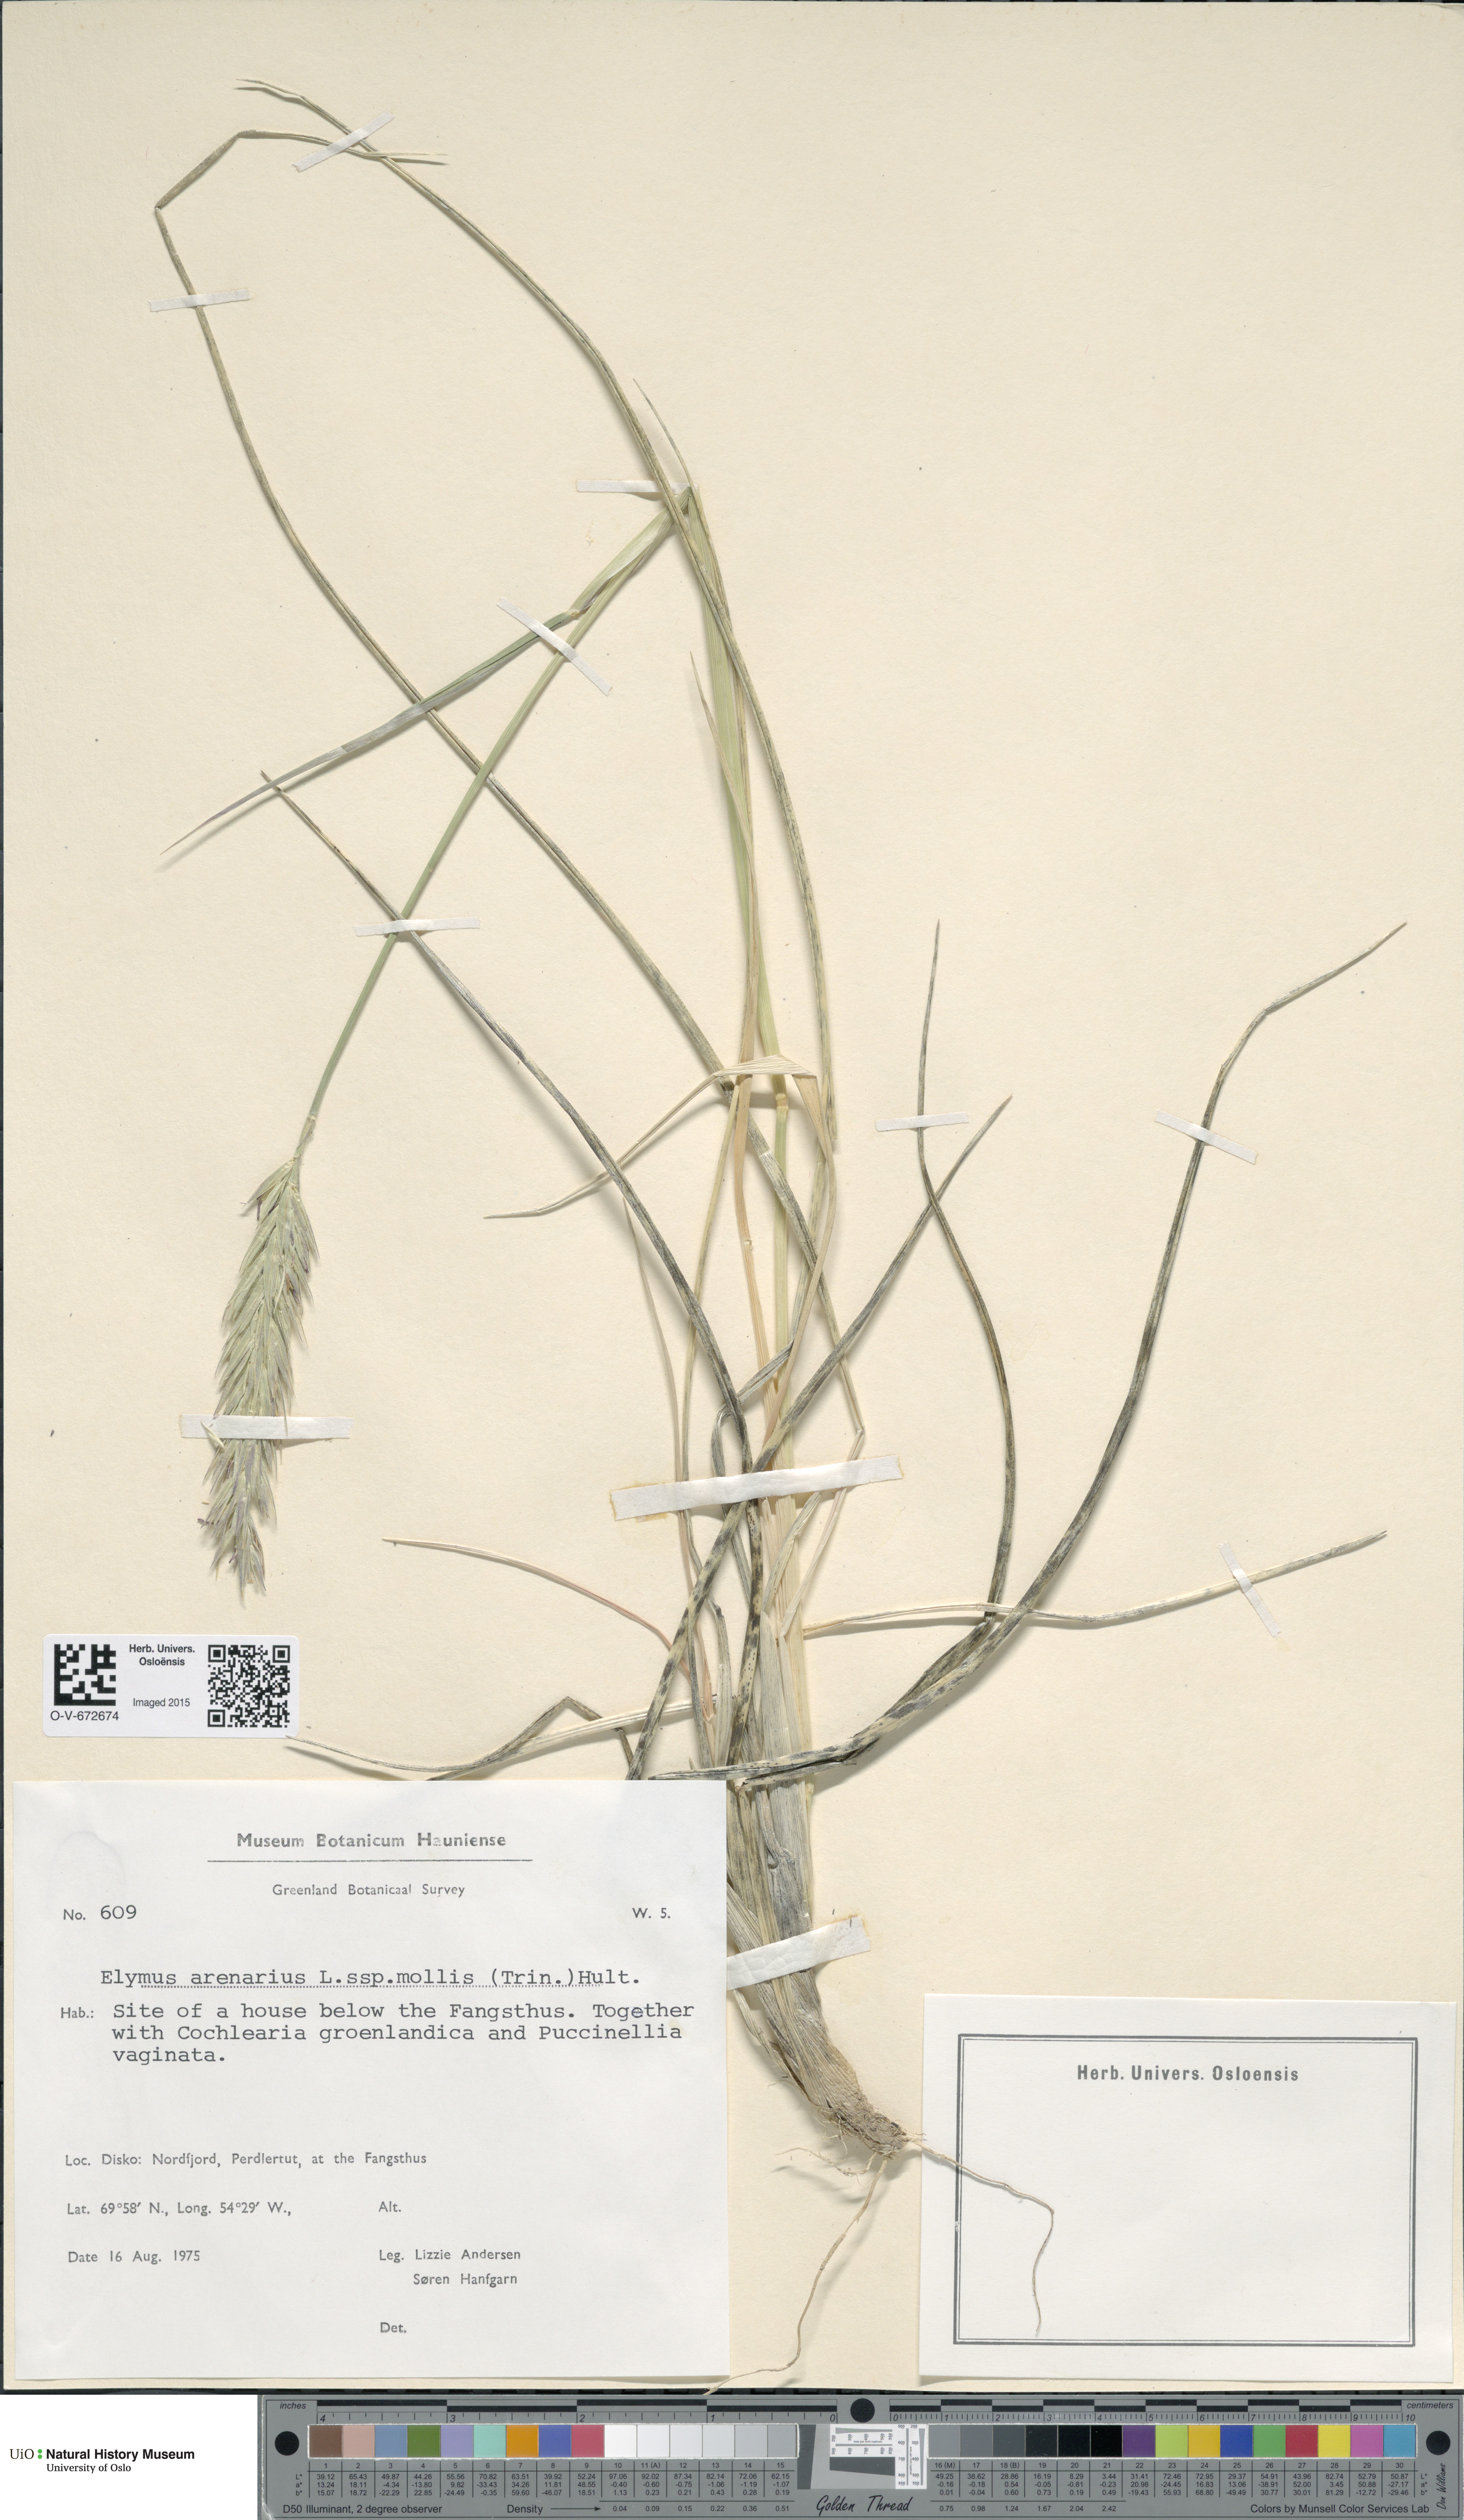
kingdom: Plantae
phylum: Tracheophyta
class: Liliopsida
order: Poales
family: Poaceae
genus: Leymus
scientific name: Leymus arenarius
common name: Lyme-grass
